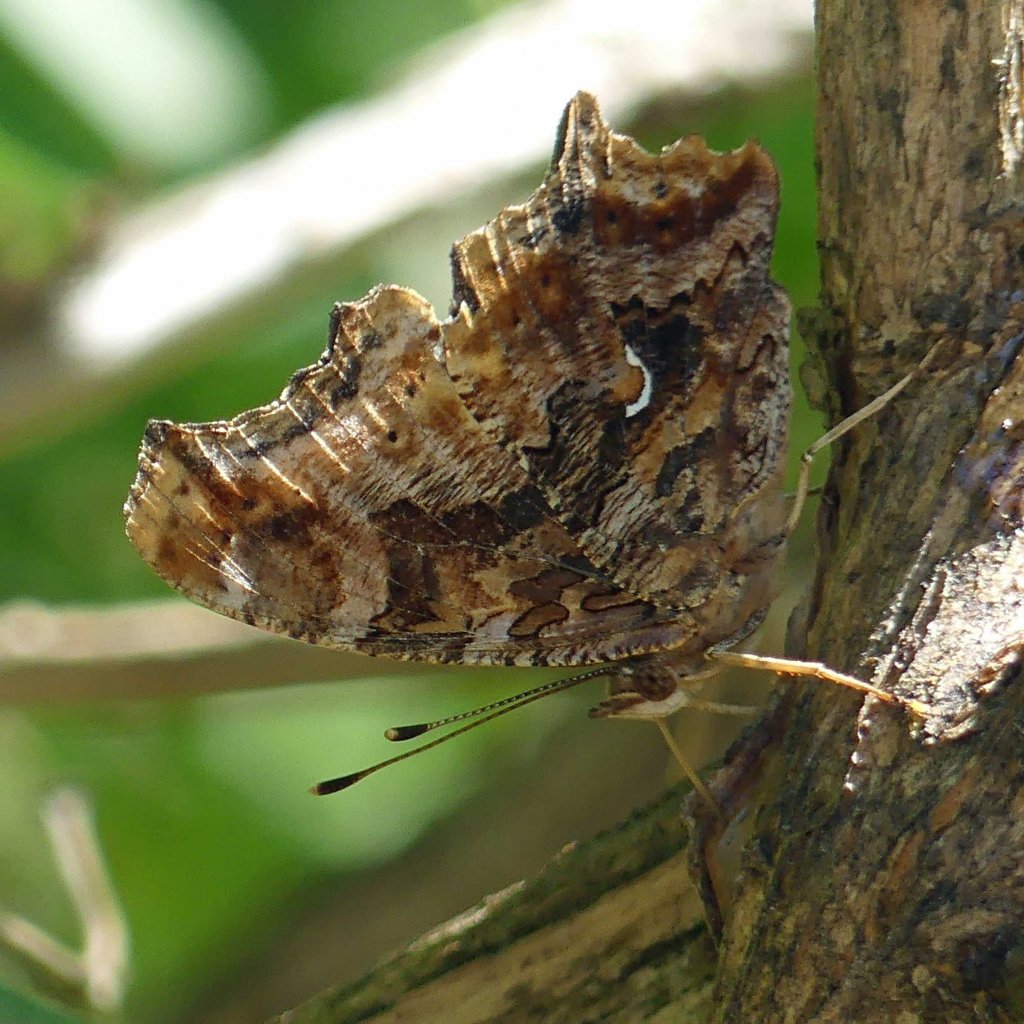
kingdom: Animalia
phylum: Arthropoda
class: Insecta
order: Lepidoptera
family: Nymphalidae
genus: Polygonia
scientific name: Polygonia comma
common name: Eastern Comma
